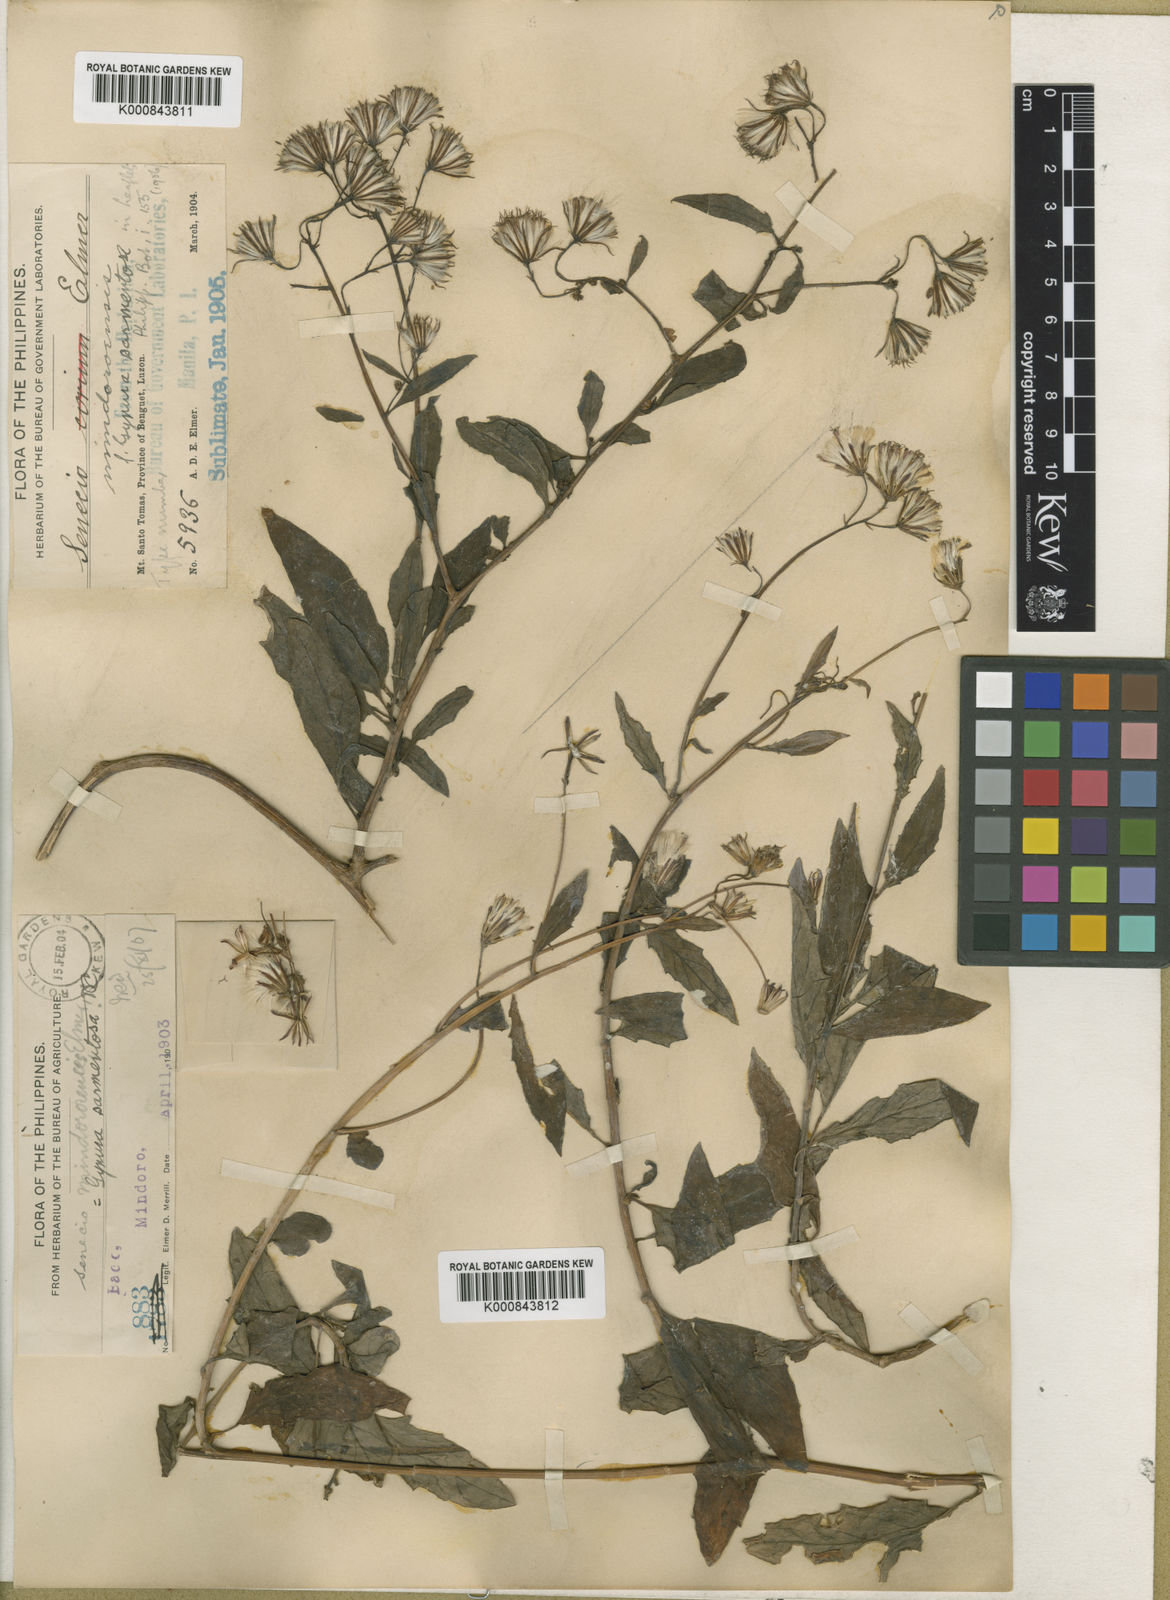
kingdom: Plantae
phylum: Tracheophyta
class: Magnoliopsida
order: Asterales
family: Asteraceae
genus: Gynura
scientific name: Gynura procumbens
